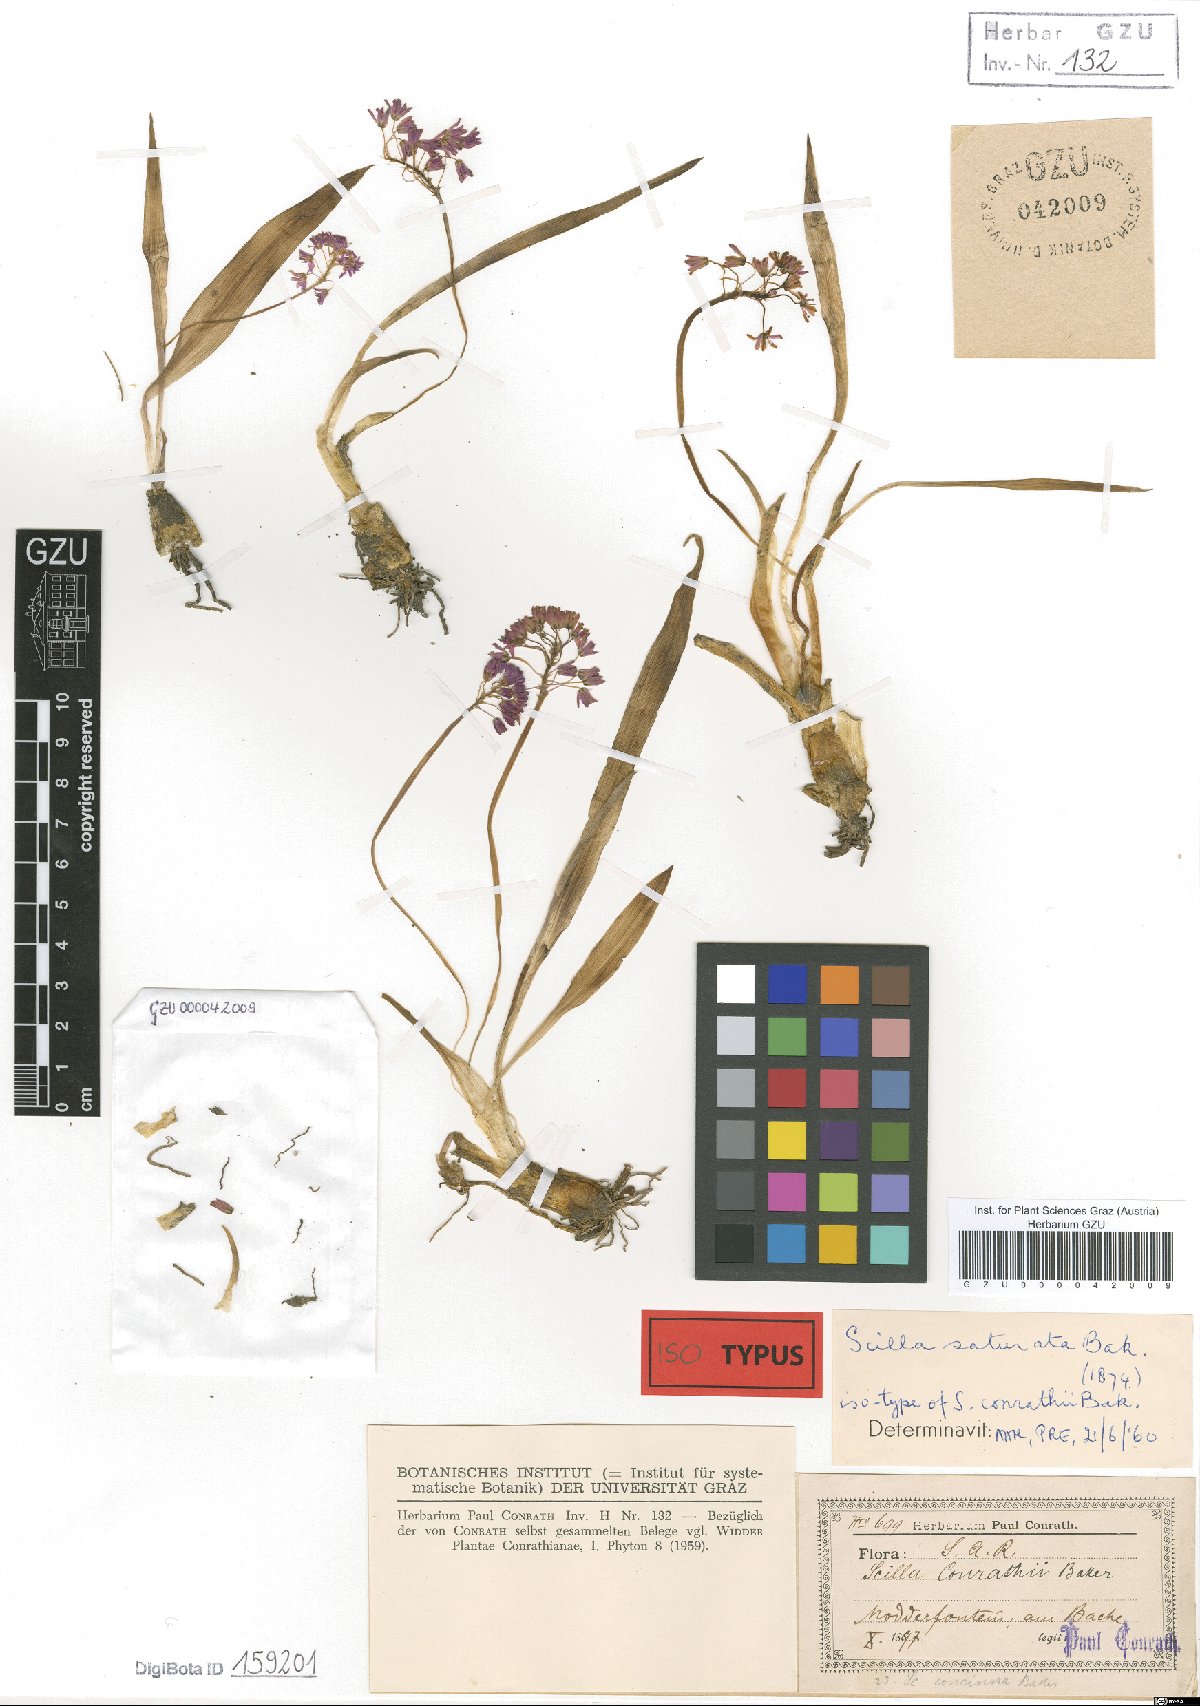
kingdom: Plantae
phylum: Tracheophyta
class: Liliopsida
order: Asparagales
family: Asparagaceae
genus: Ledebouria
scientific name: Ledebouria cooperi
